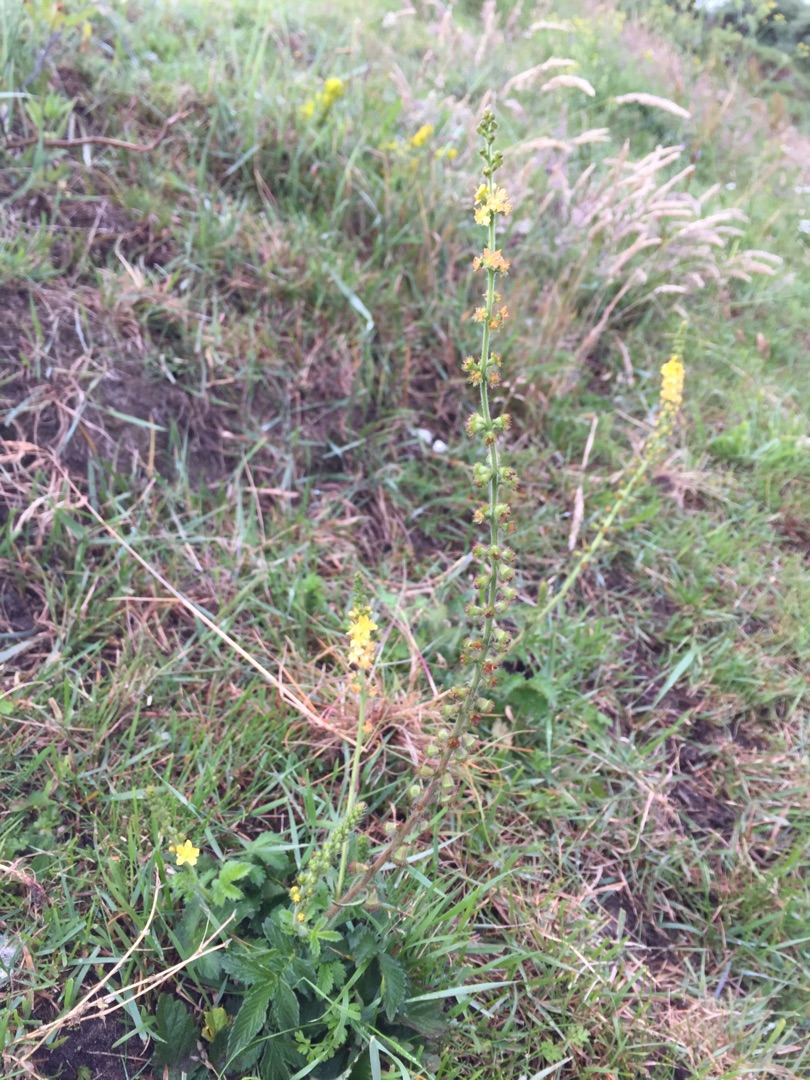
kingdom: Plantae
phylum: Tracheophyta
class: Magnoliopsida
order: Rosales
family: Rosaceae
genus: Agrimonia
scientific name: Agrimonia eupatoria
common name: Almindelig agermåne
